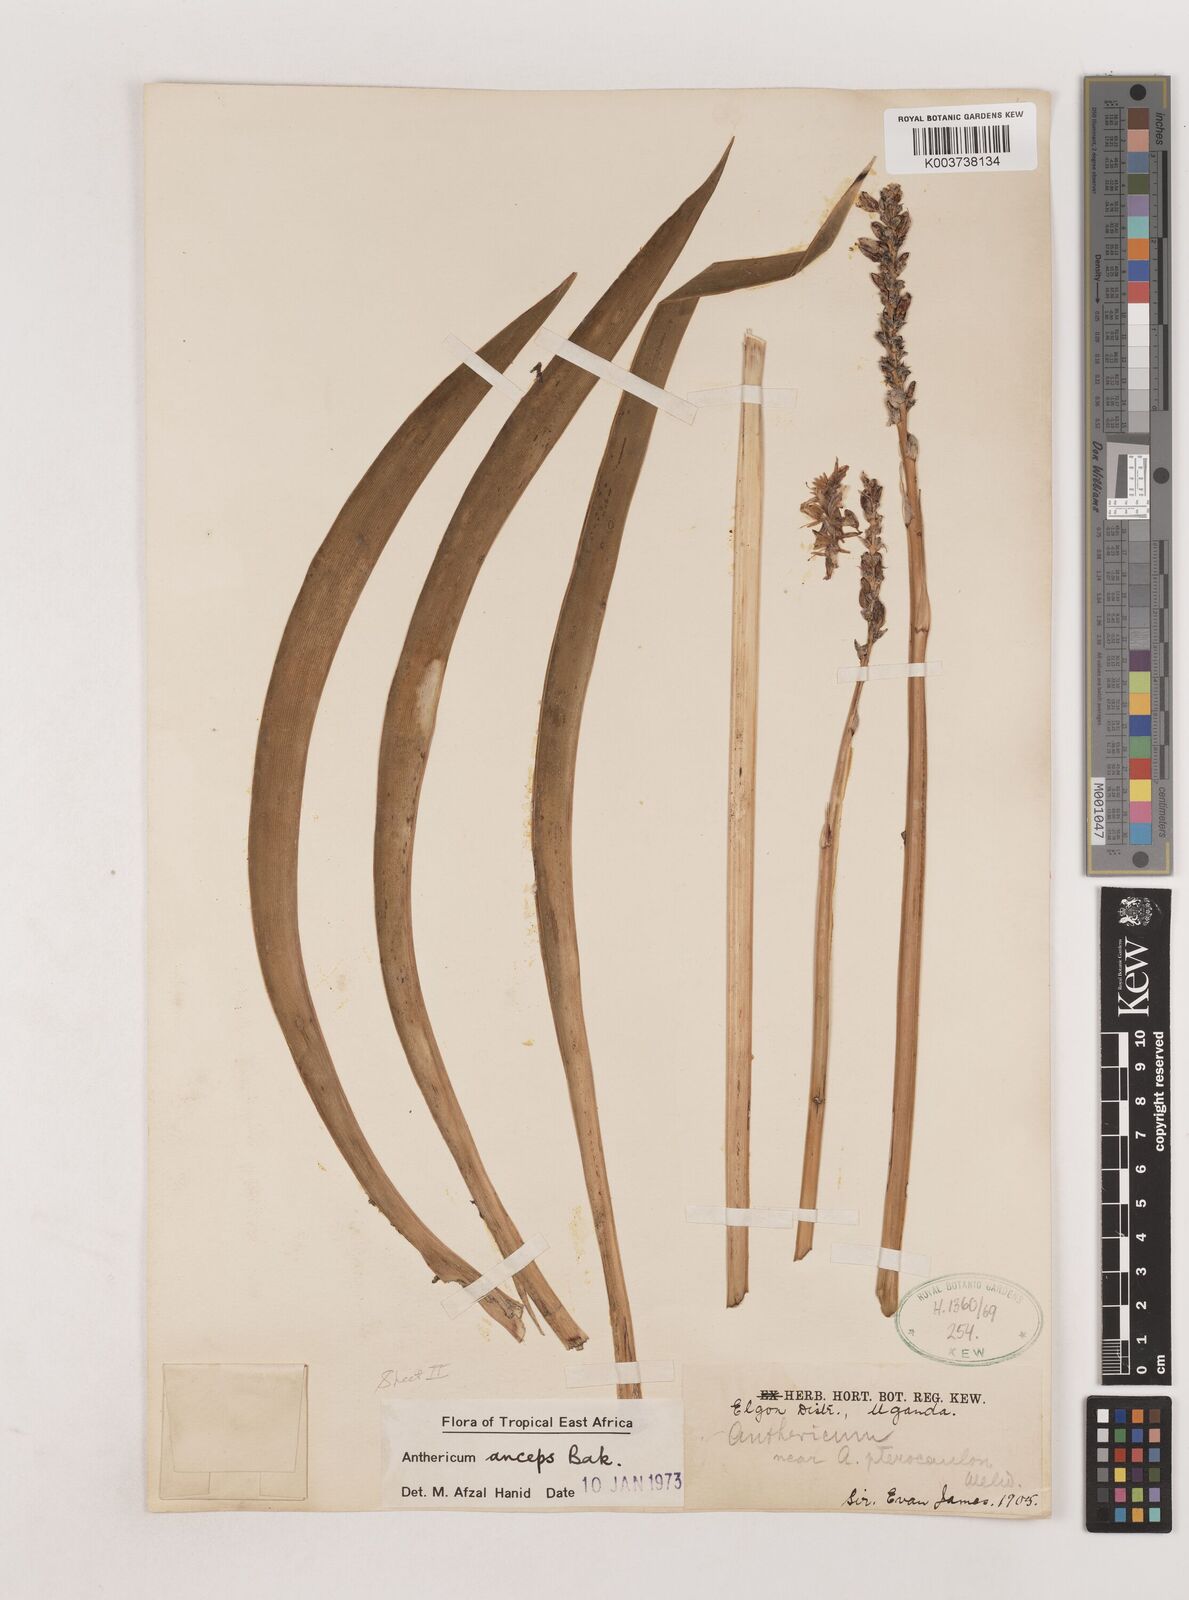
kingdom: Plantae
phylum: Tracheophyta
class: Liliopsida
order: Asparagales
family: Asparagaceae
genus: Chlorophytum
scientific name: Chlorophytum cameronii
